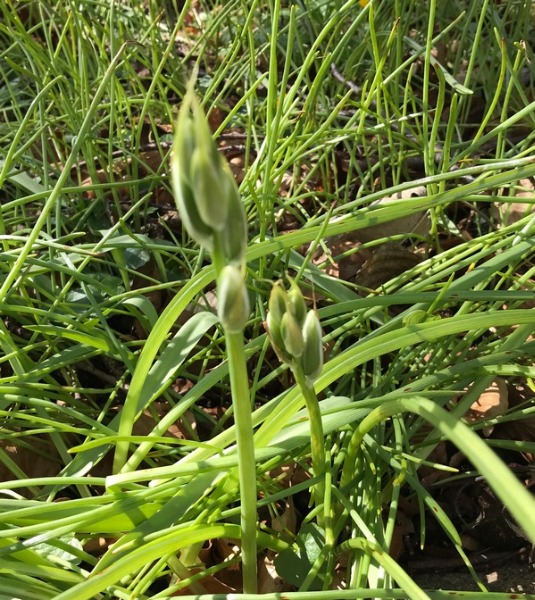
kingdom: Plantae
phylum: Tracheophyta
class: Liliopsida
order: Asparagales
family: Asparagaceae
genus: Ornithogalum
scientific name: Ornithogalum nutans
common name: Nikkende fuglemælk
